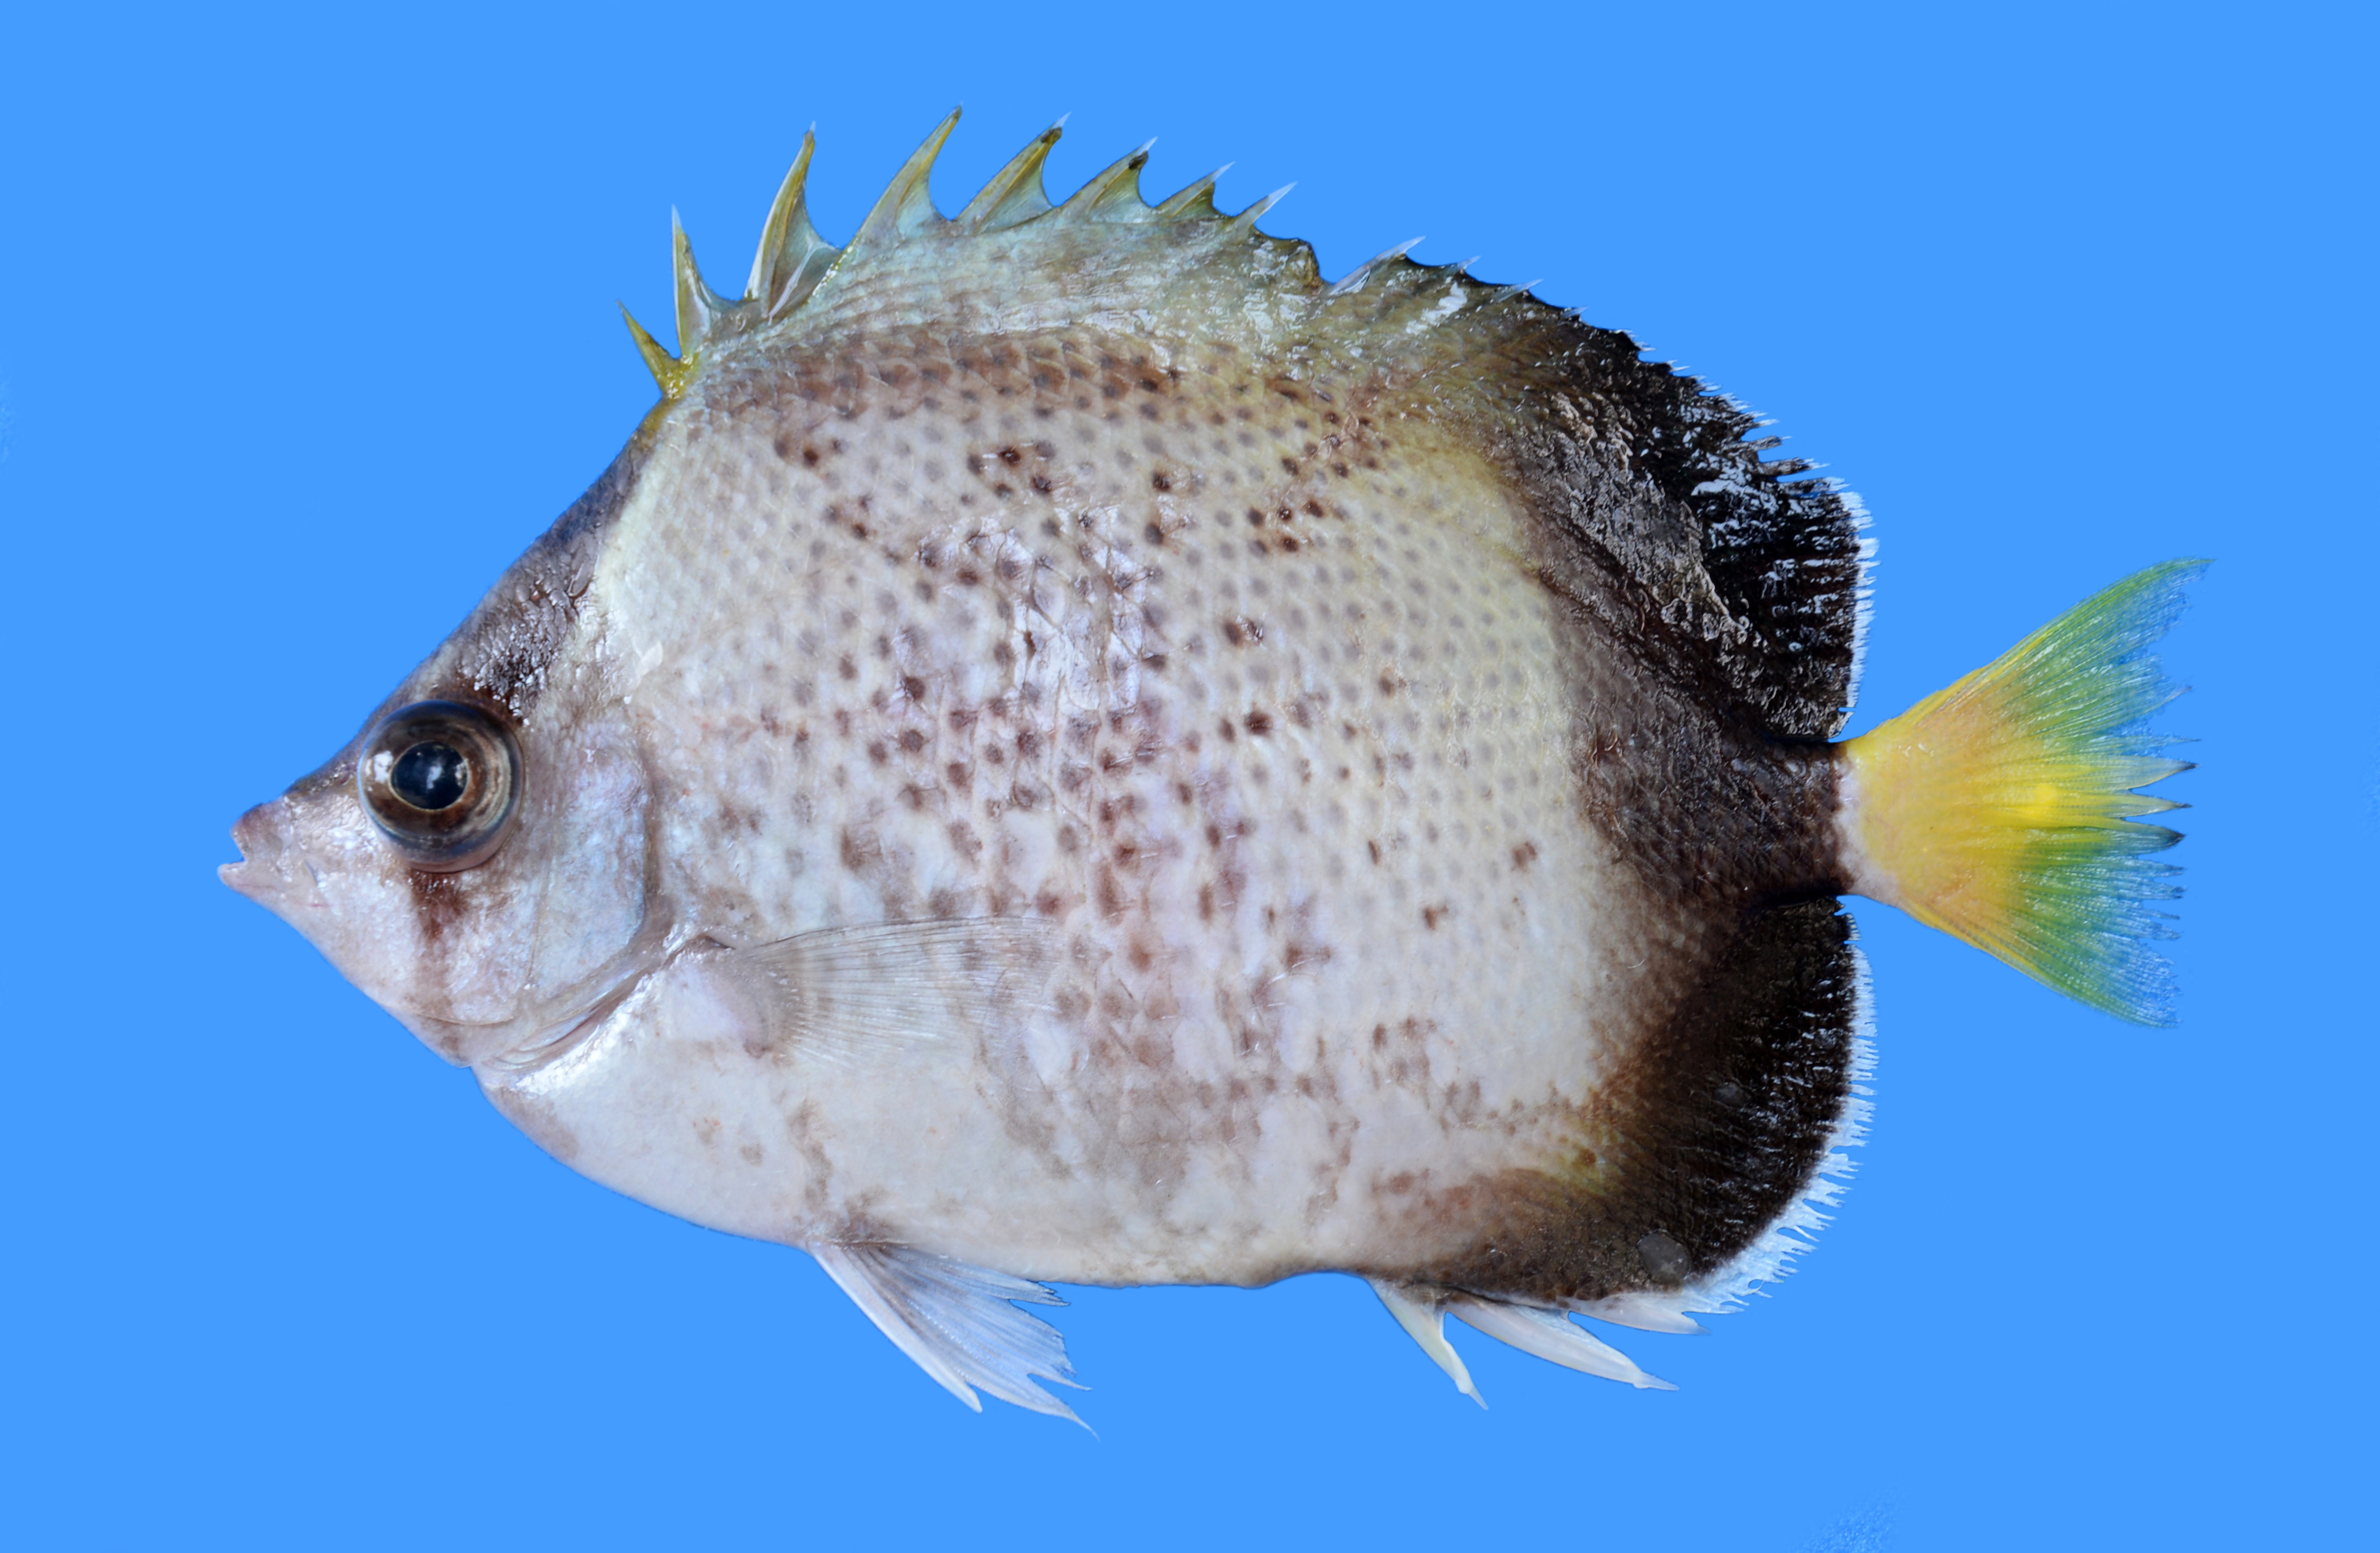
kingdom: Animalia
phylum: Chordata
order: Perciformes
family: Chaetodontidae
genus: Chaetodon
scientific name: Chaetodon dolosus
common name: African butterflyfish
